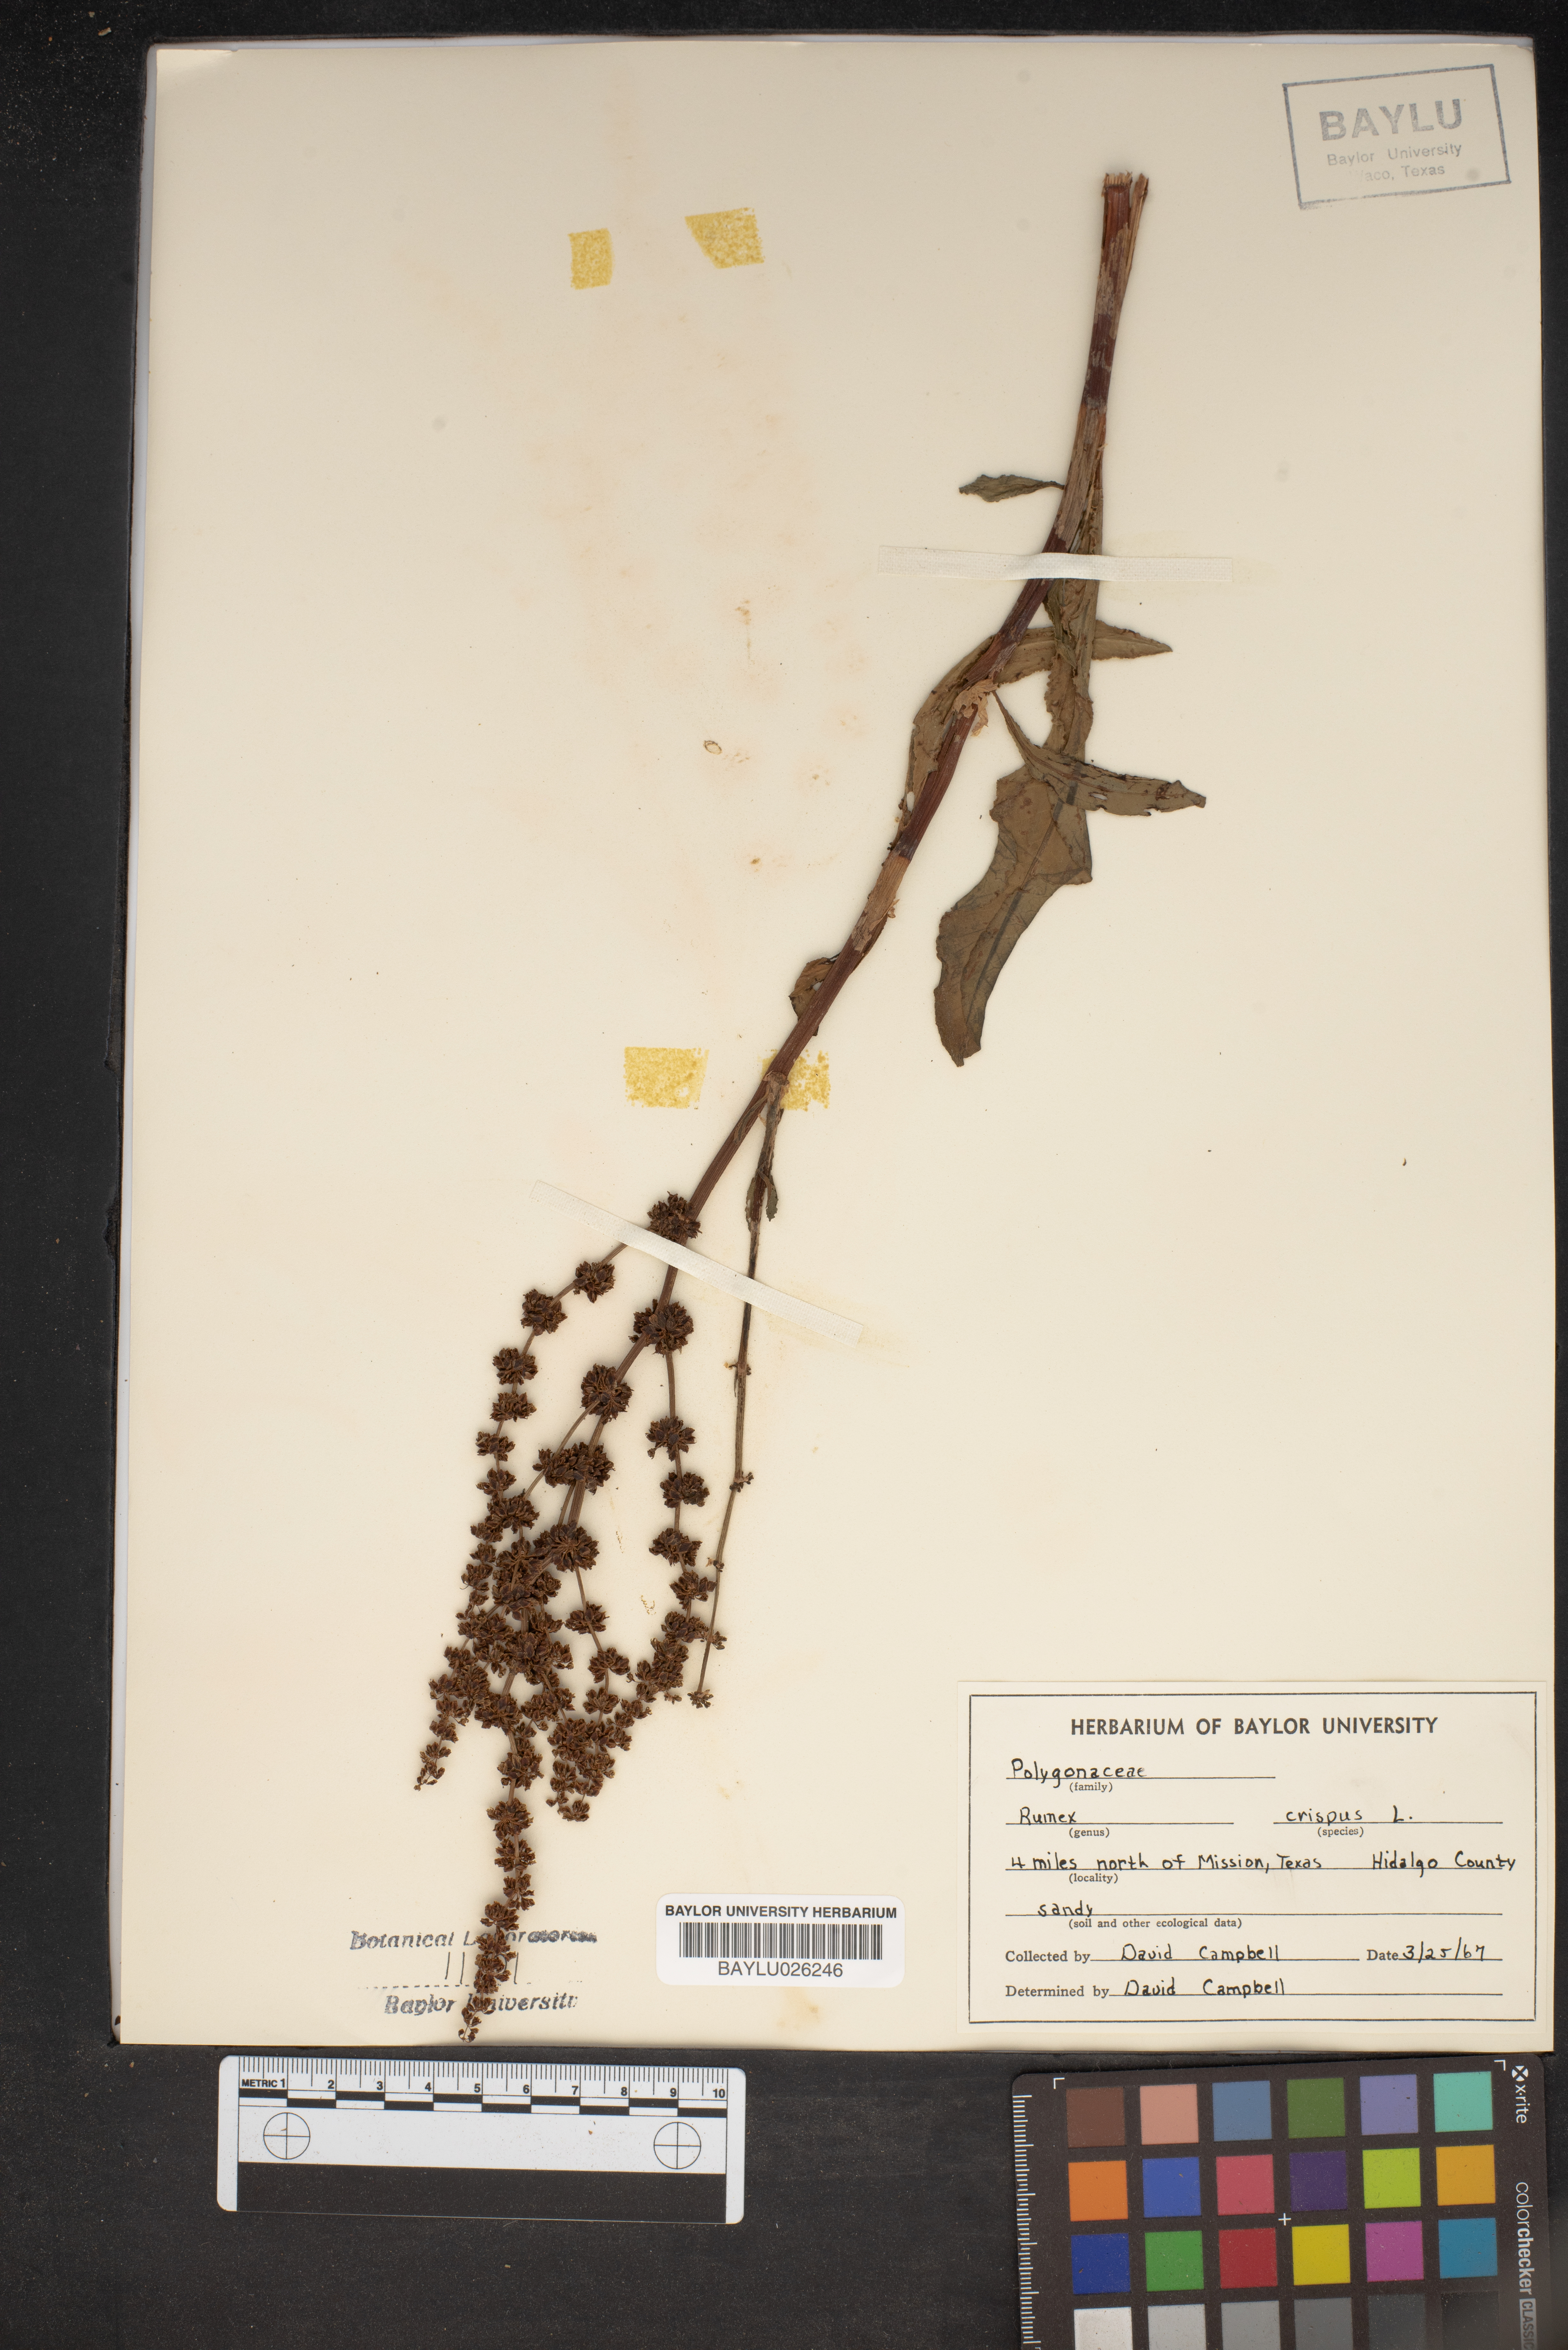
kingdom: Plantae
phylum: Tracheophyta
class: Magnoliopsida
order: Caryophyllales
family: Polygonaceae
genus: Rumex
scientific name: Rumex crispus
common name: Curled dock
